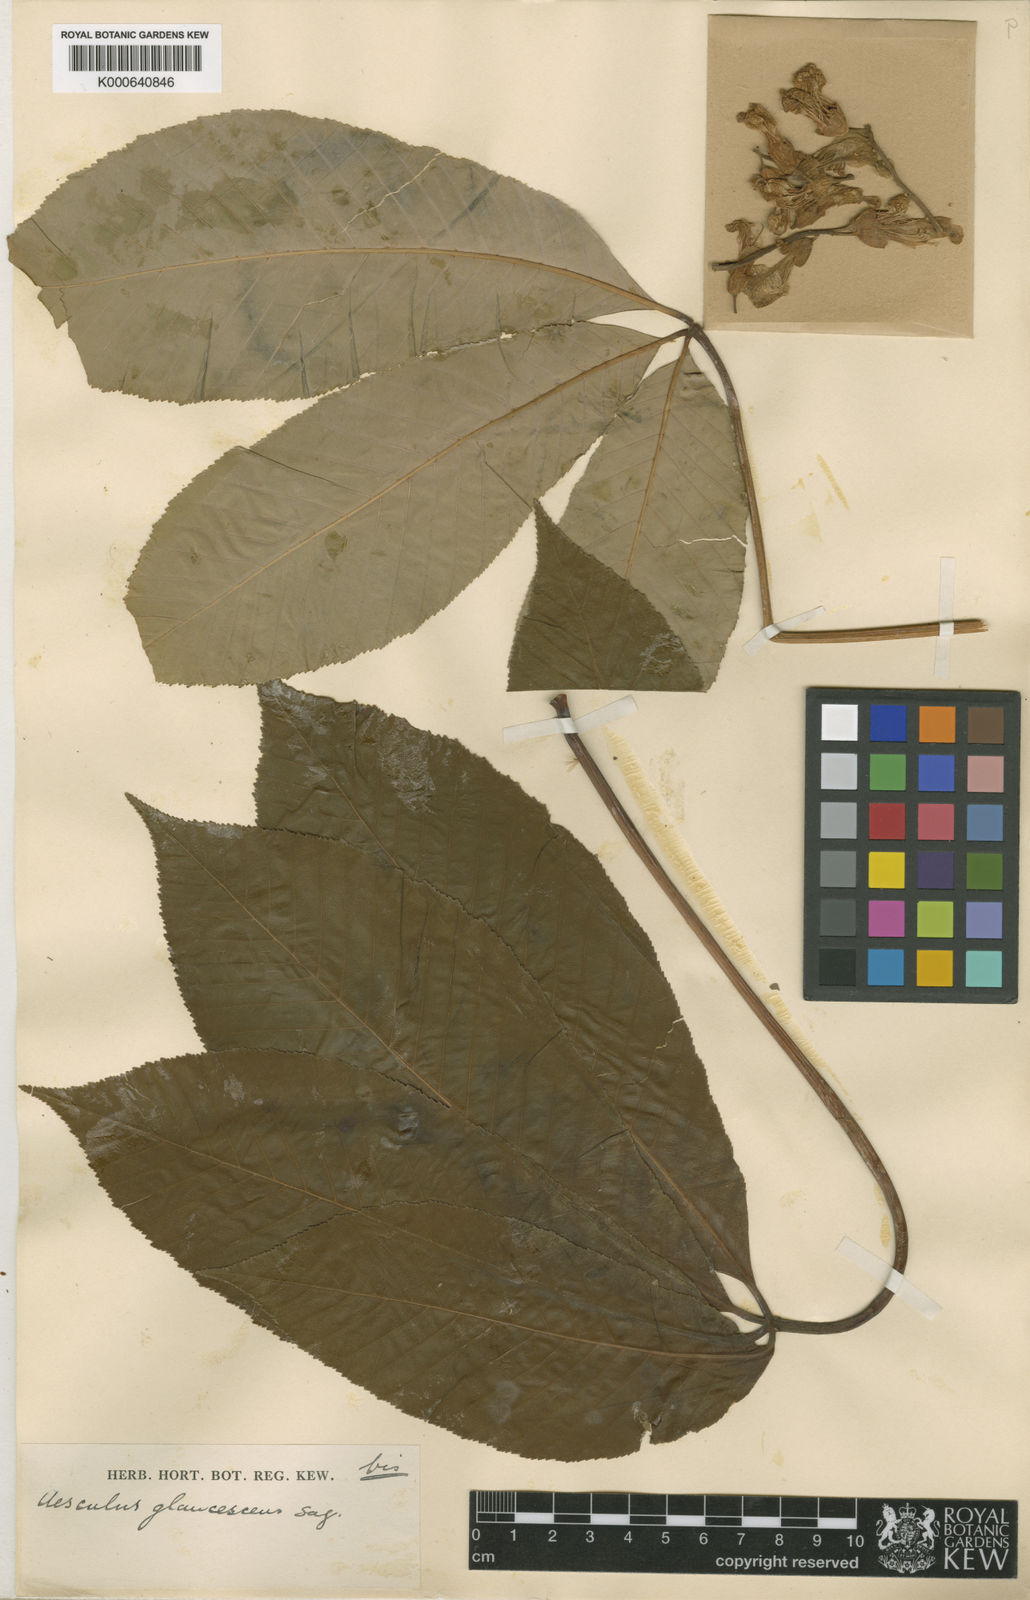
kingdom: Plantae
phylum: Tracheophyta
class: Magnoliopsida
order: Sapindales
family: Sapindaceae
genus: Aesculus
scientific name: Aesculus sylvatica
